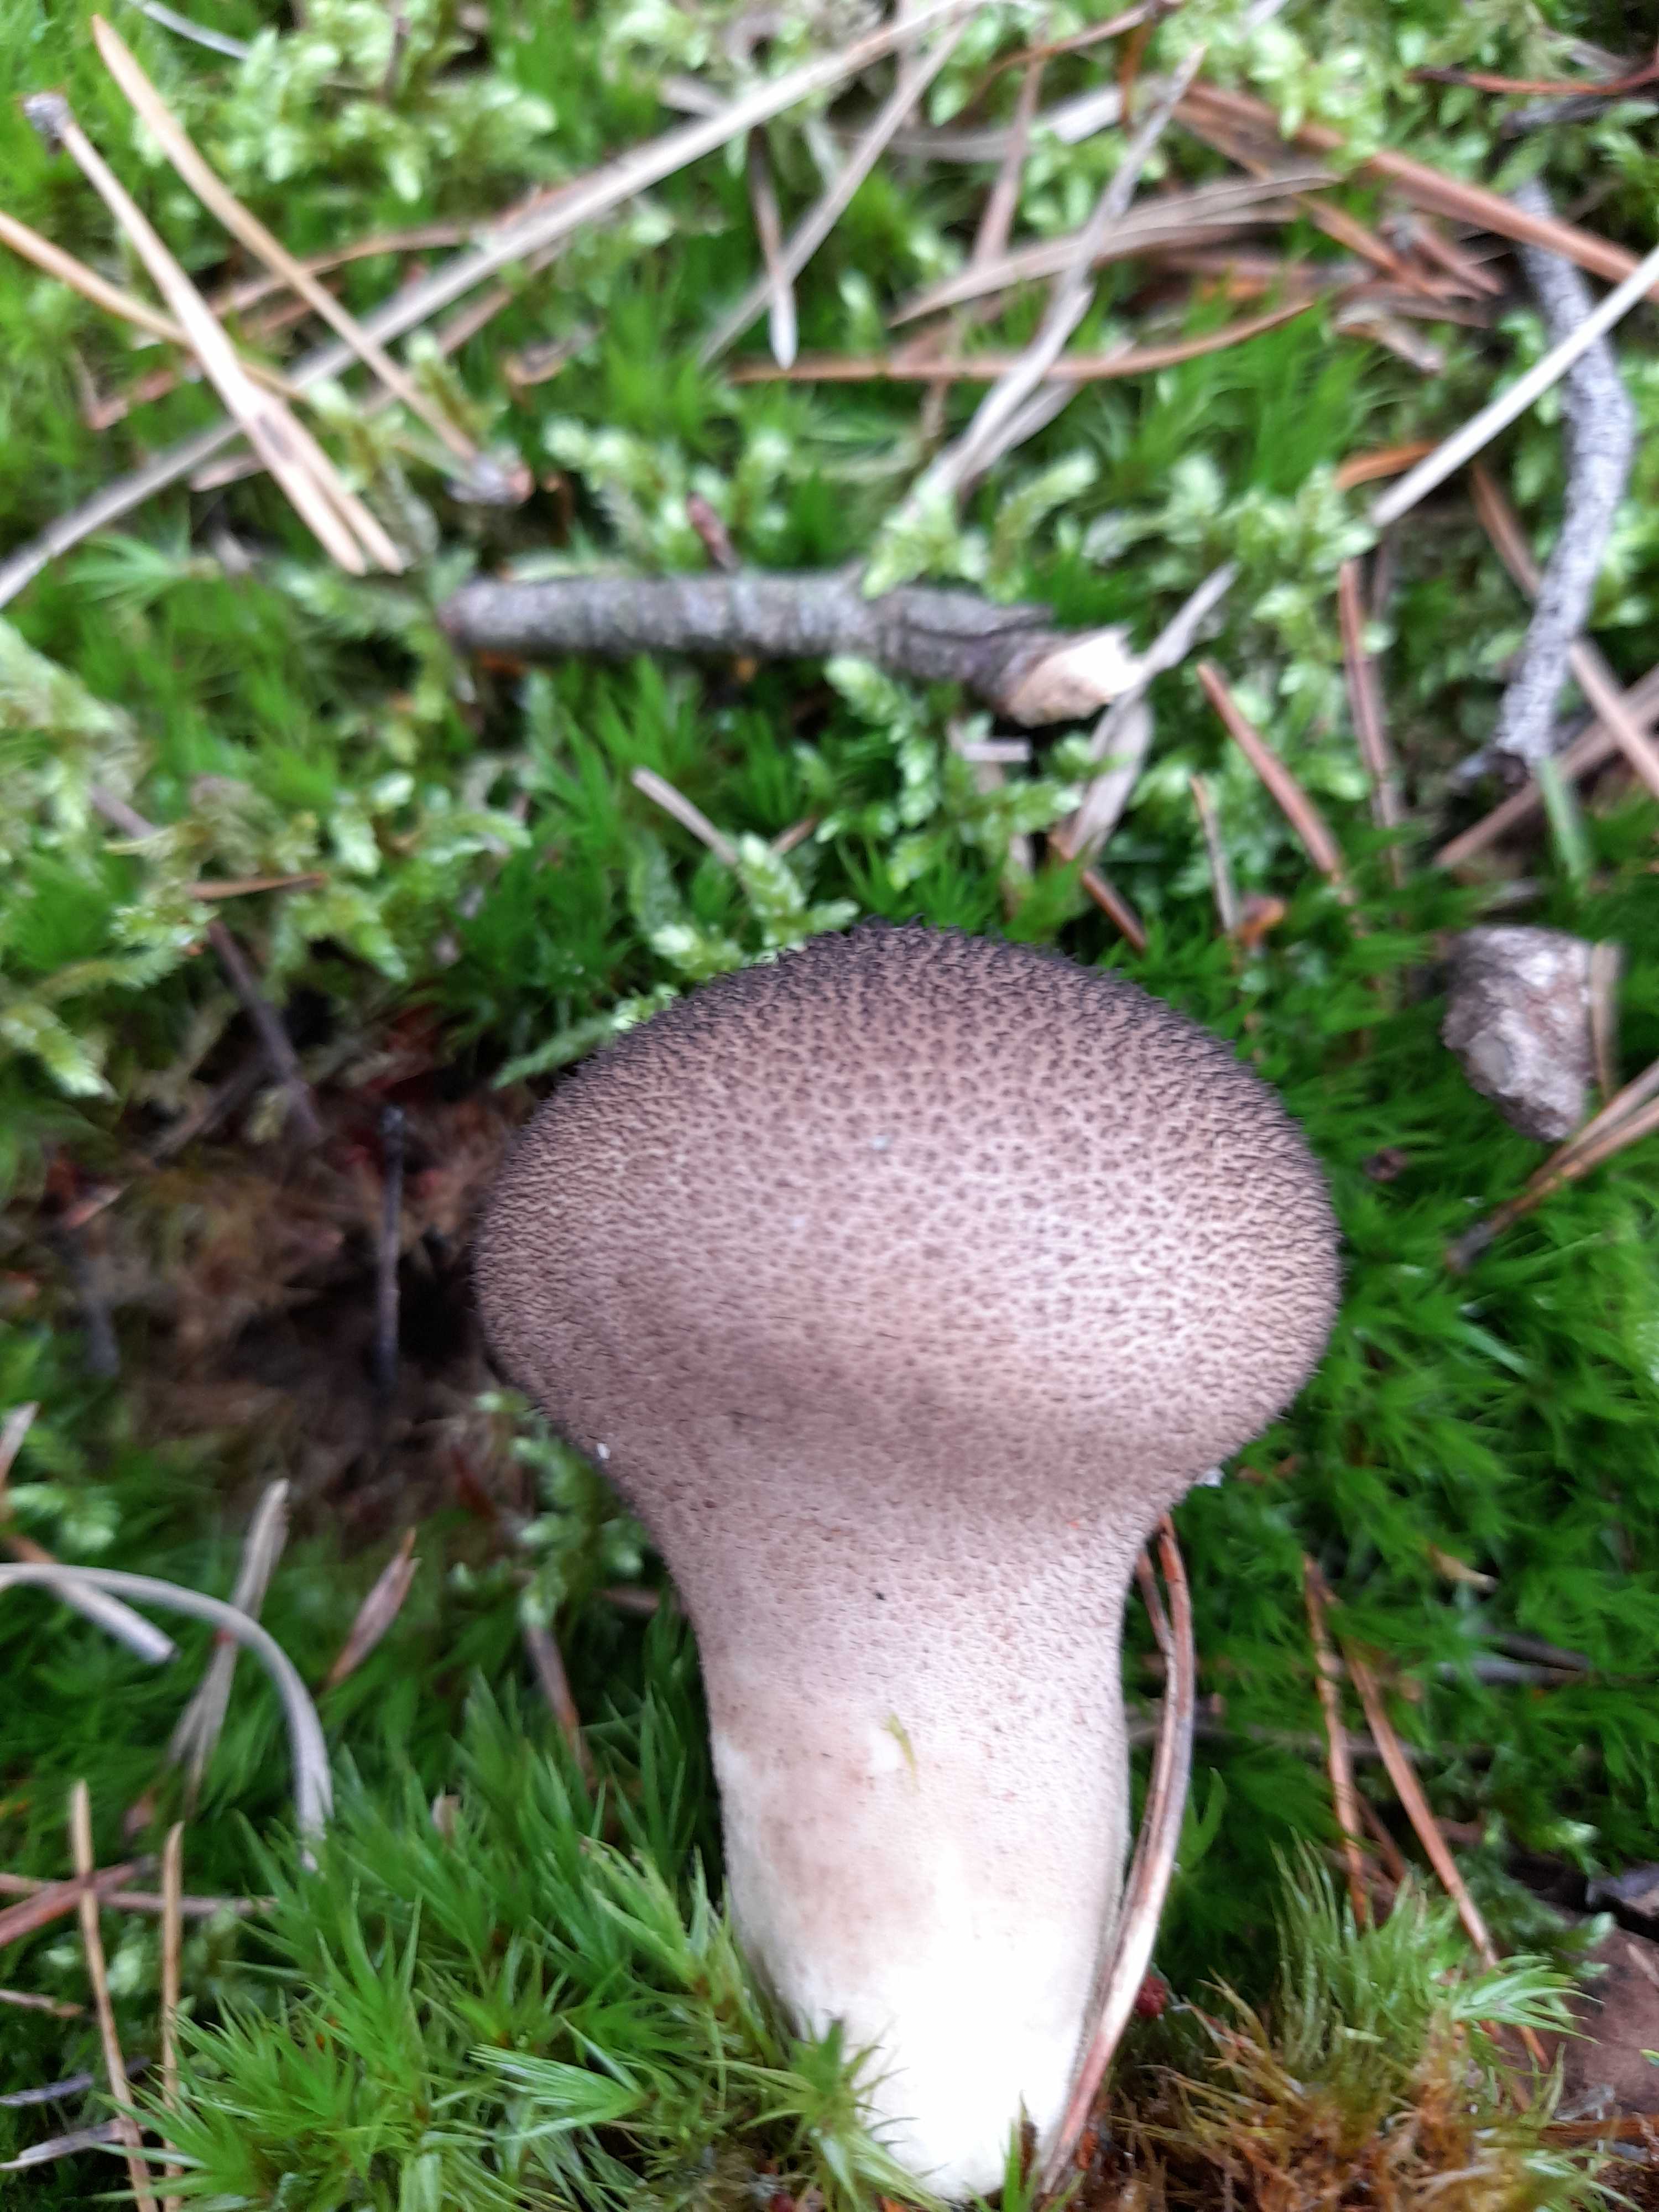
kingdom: Fungi
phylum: Basidiomycota
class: Agaricomycetes
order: Agaricales
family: Lycoperdaceae
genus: Lycoperdon
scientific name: Lycoperdon perlatum
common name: krystal-støvbold
